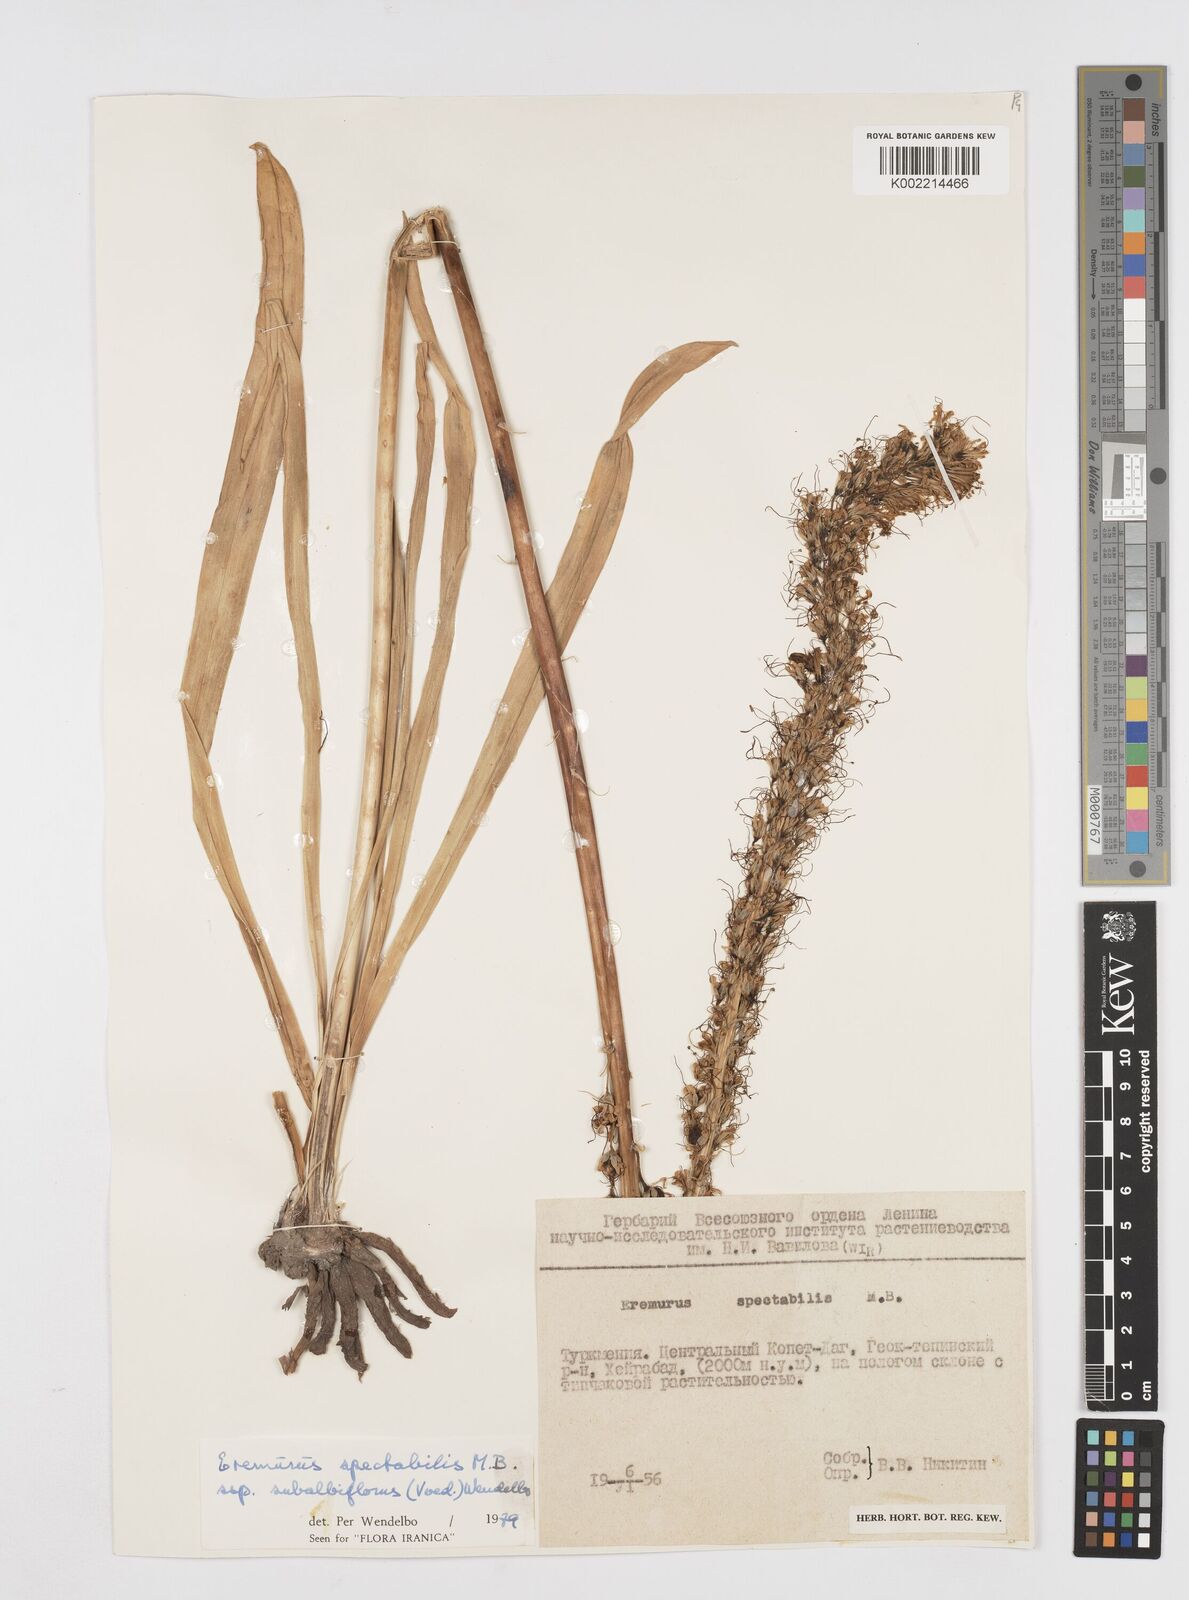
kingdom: Plantae
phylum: Tracheophyta
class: Liliopsida
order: Asparagales
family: Asphodelaceae
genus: Eremurus
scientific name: Eremurus spectabilis
